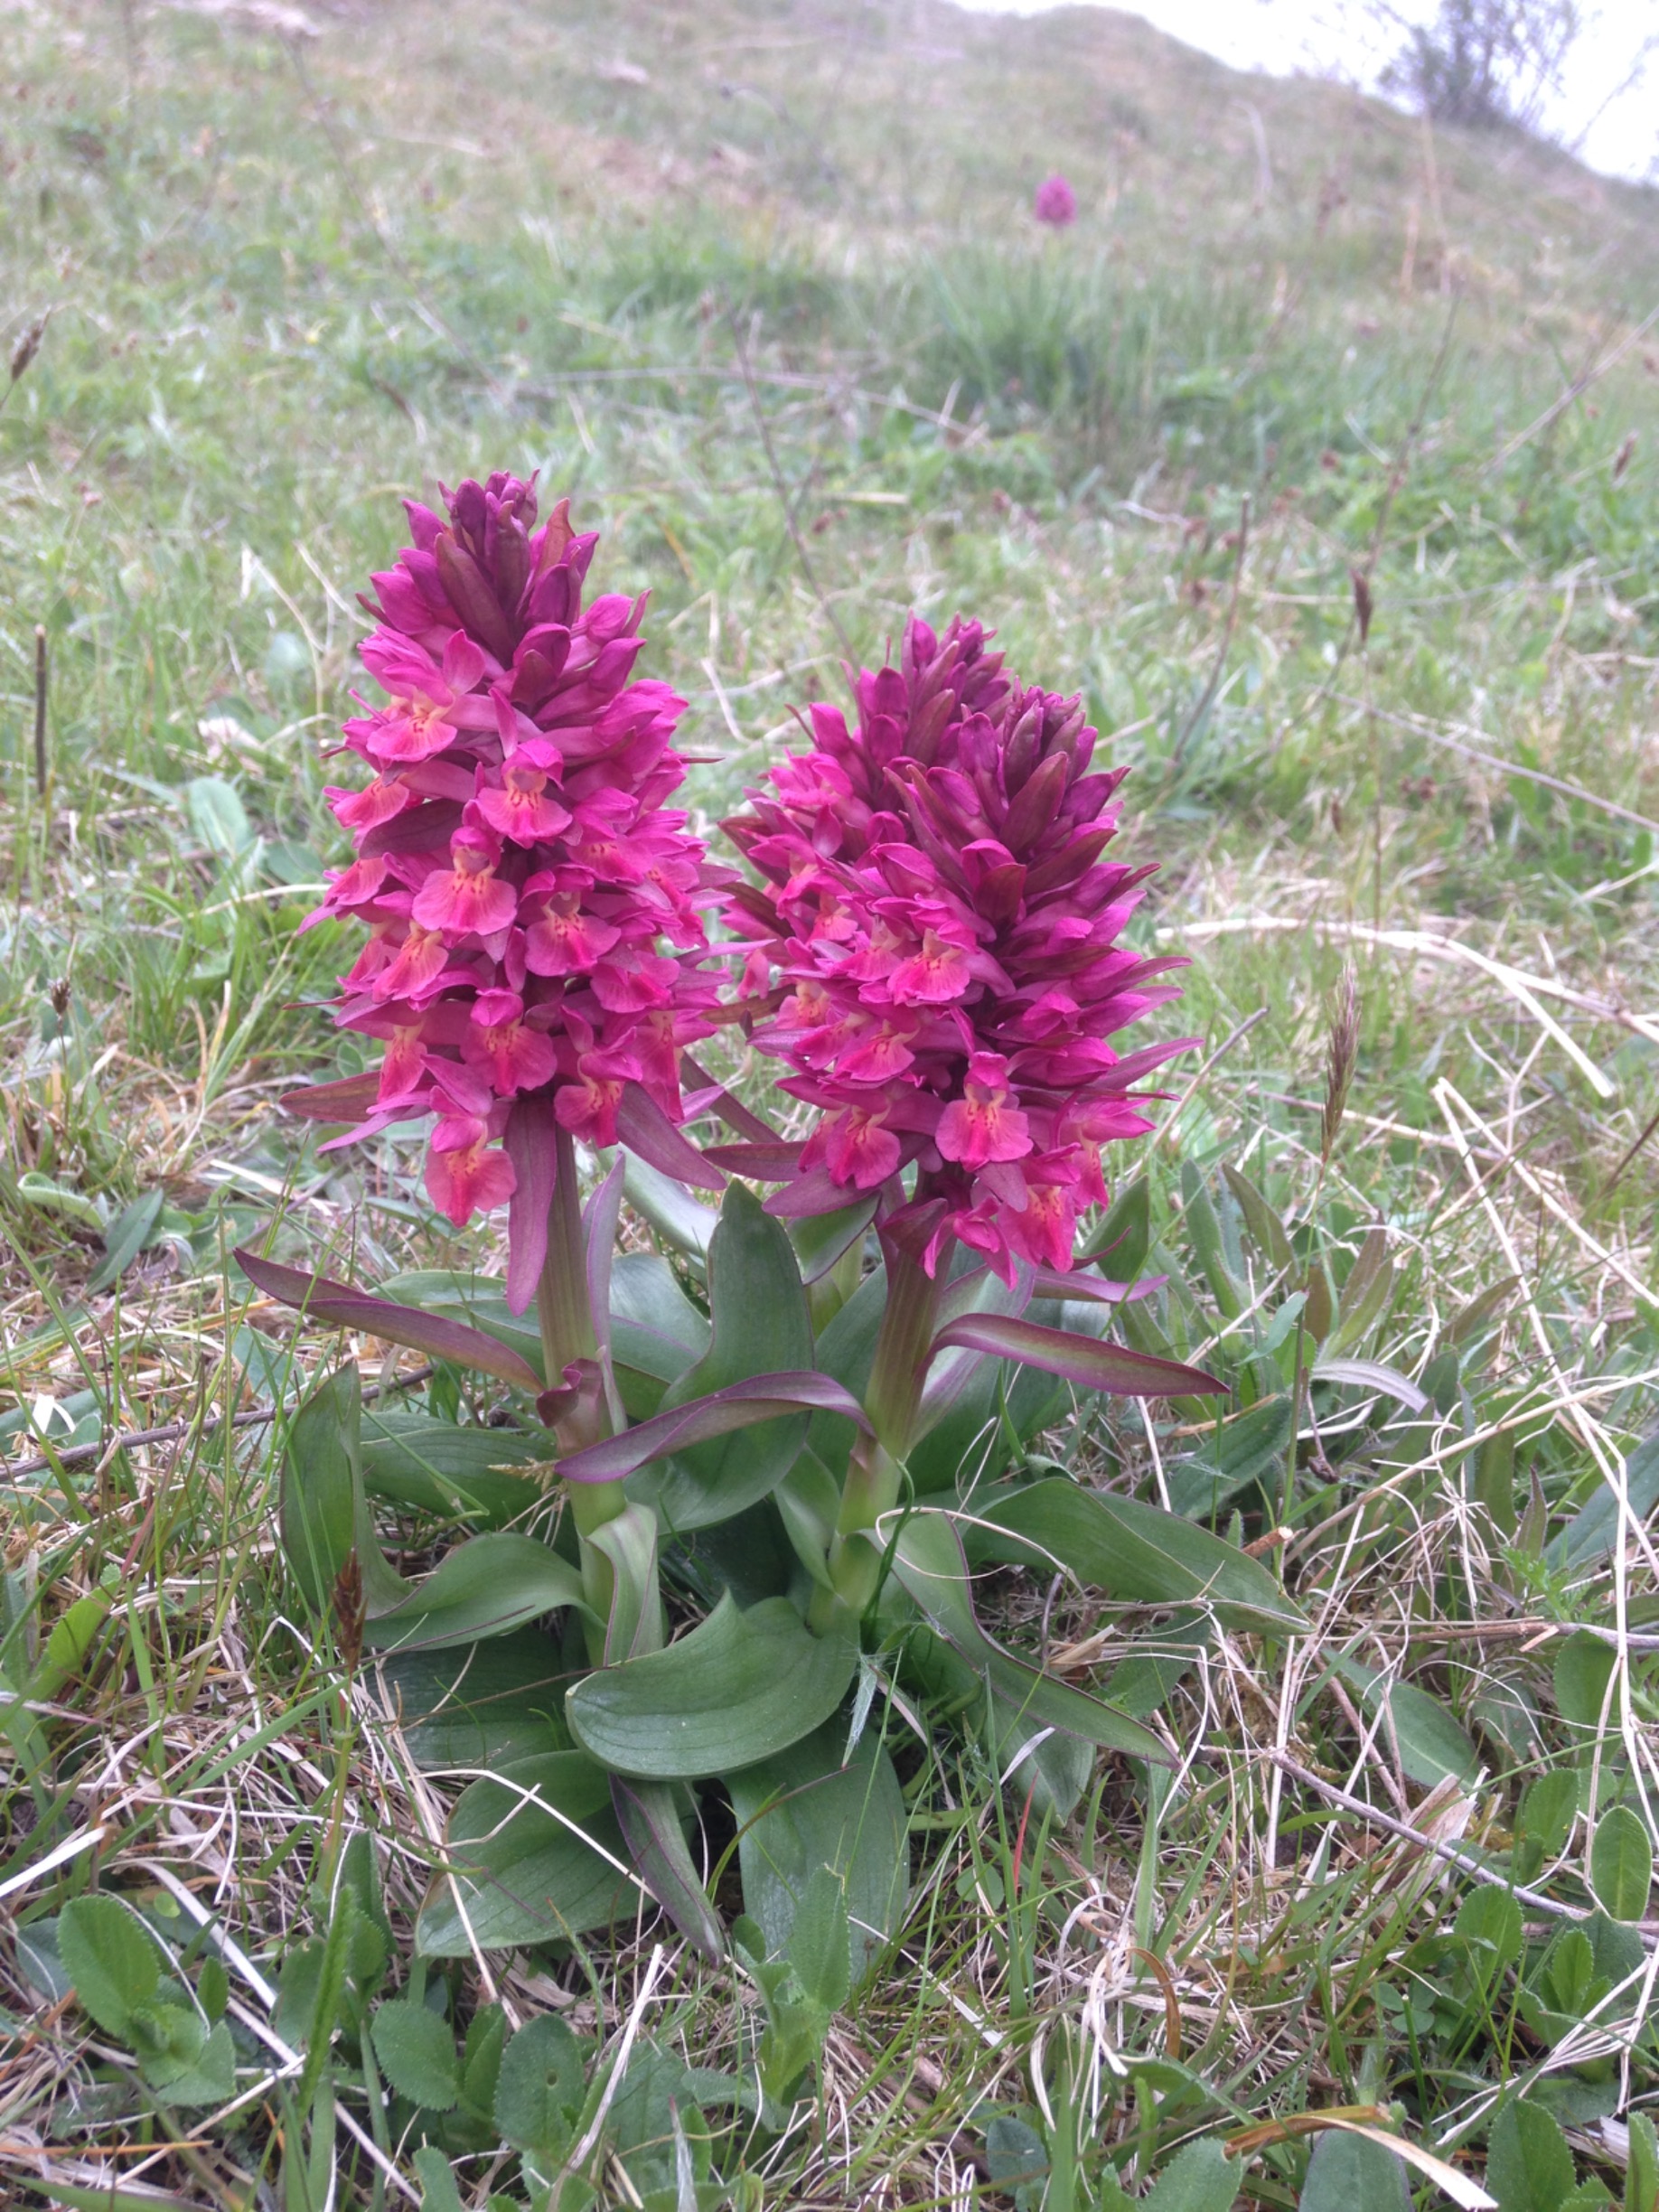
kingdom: Plantae
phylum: Tracheophyta
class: Liliopsida
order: Asparagales
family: Orchidaceae
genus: Dactylorhiza
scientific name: Dactylorhiza sambucina
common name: Hylde-gøgeurt
